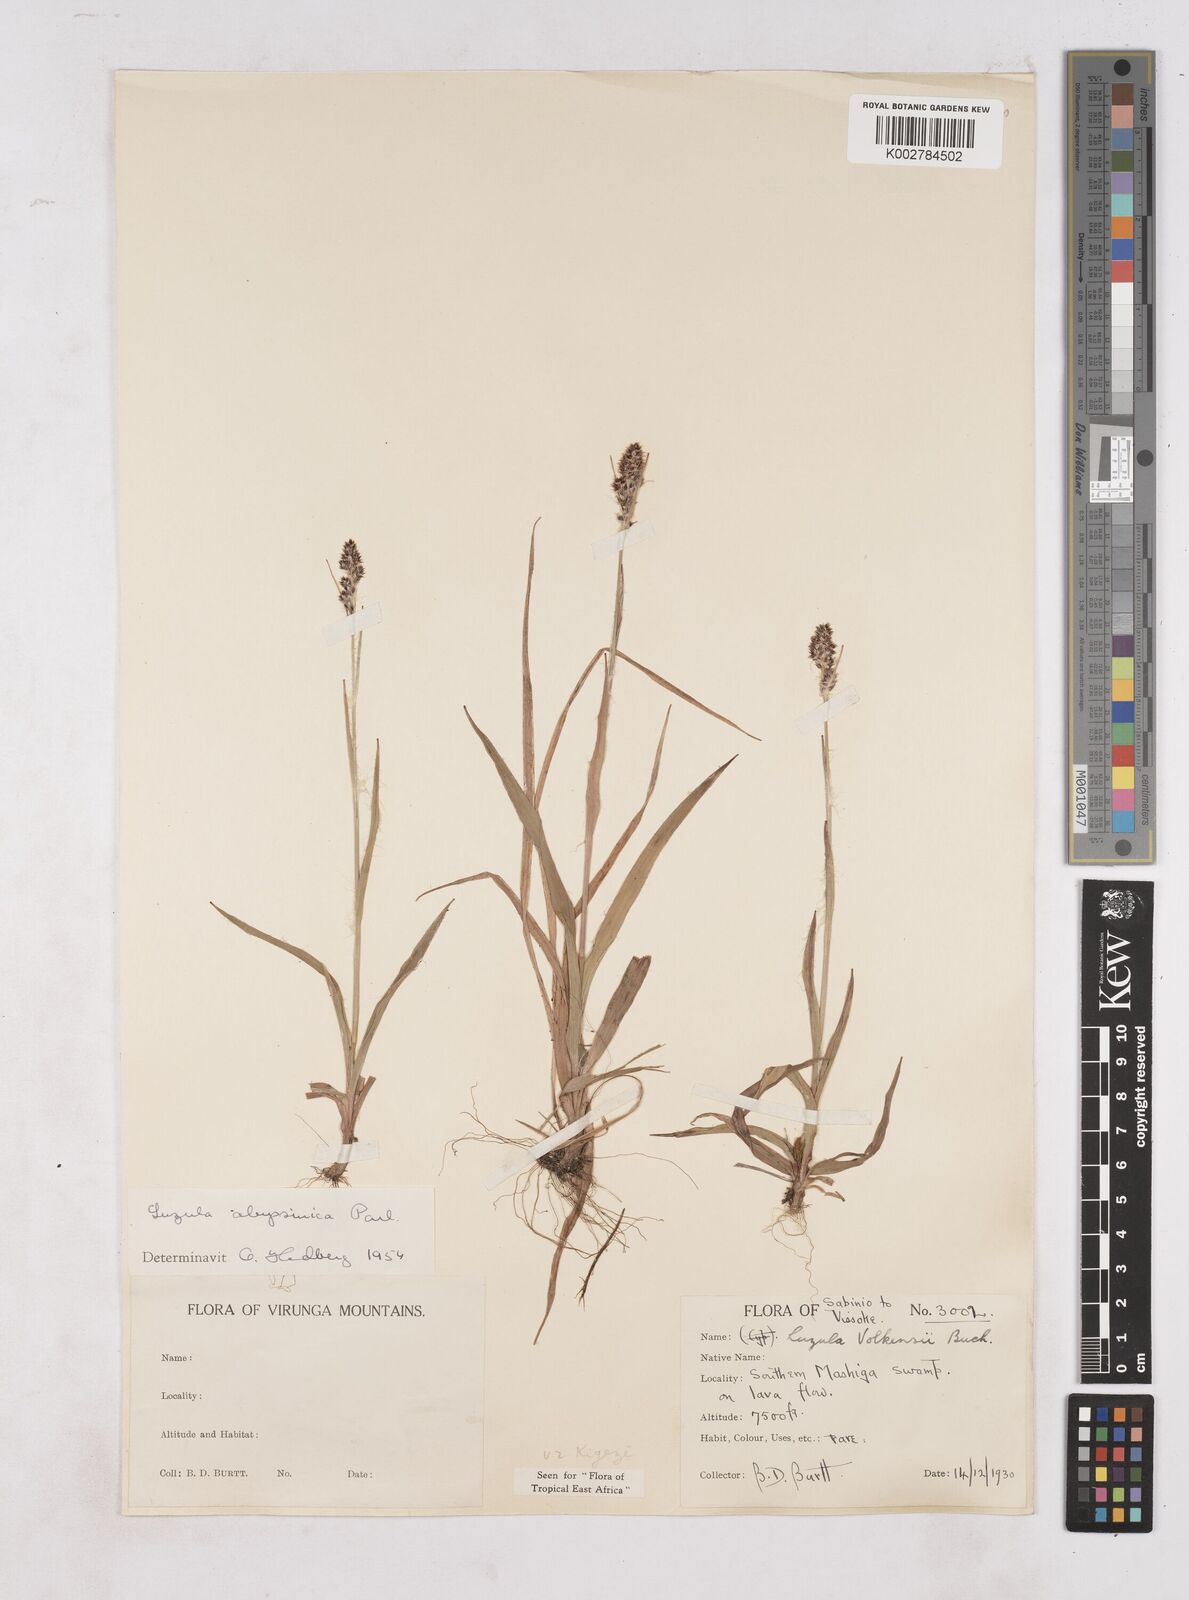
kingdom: Plantae
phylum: Tracheophyta
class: Liliopsida
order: Poales
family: Juncaceae
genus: Luzula
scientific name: Luzula abyssinica
